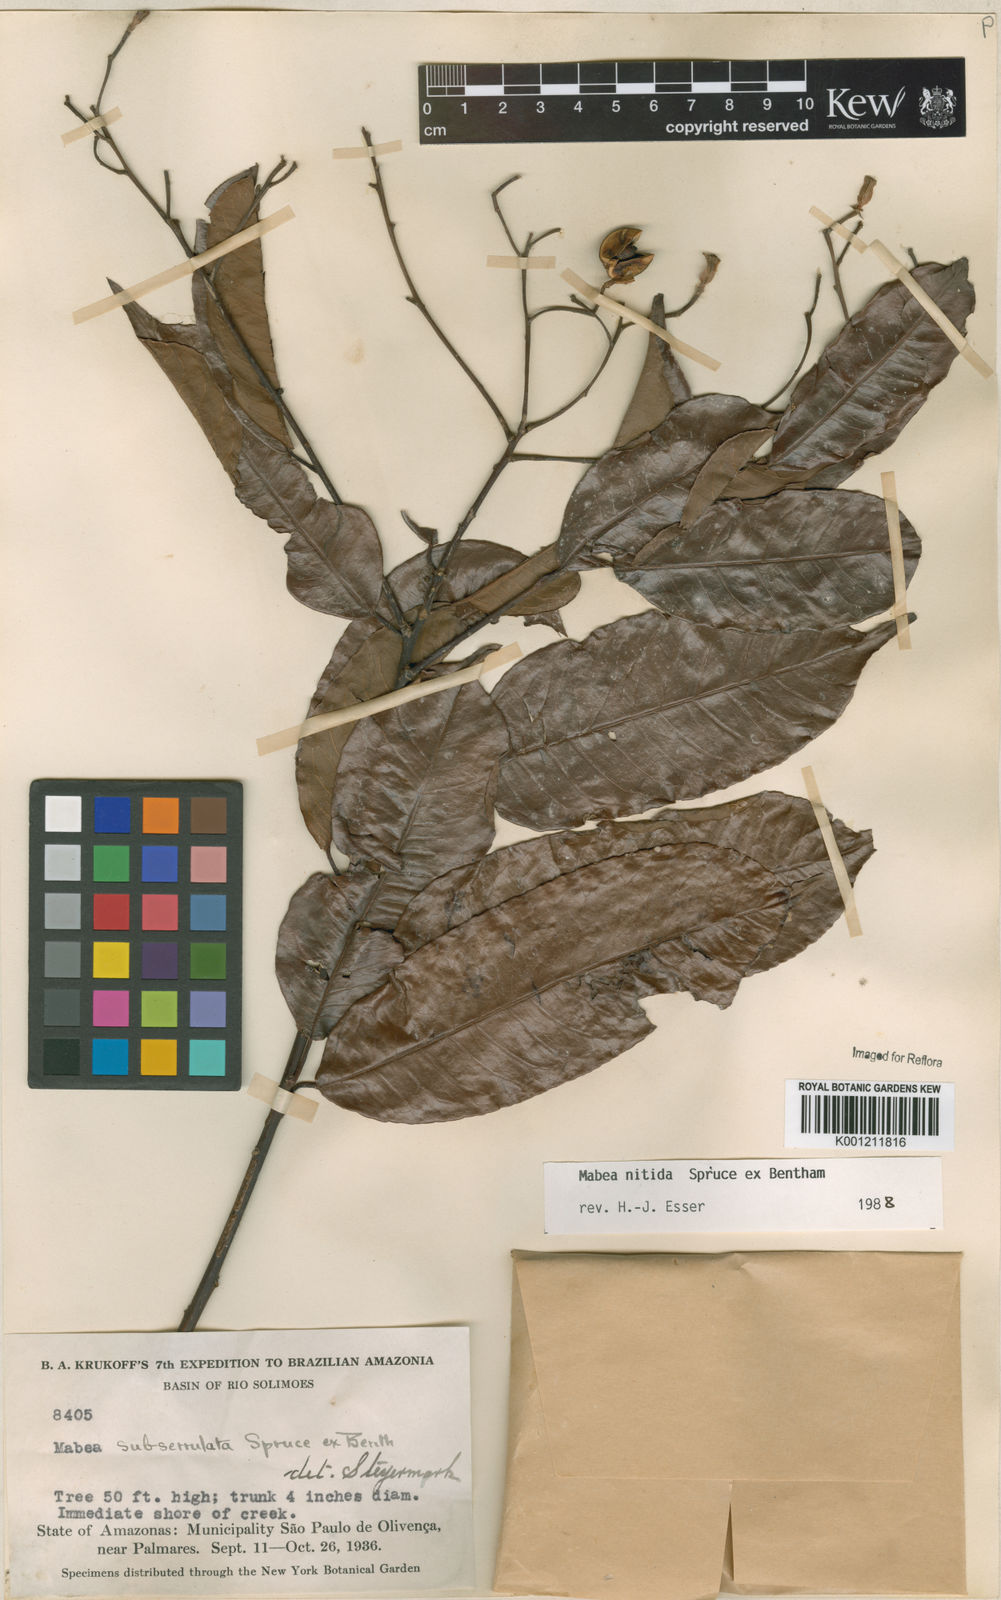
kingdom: Plantae
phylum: Tracheophyta
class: Magnoliopsida
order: Malpighiales
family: Euphorbiaceae
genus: Mabea
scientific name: Mabea subserrulata
